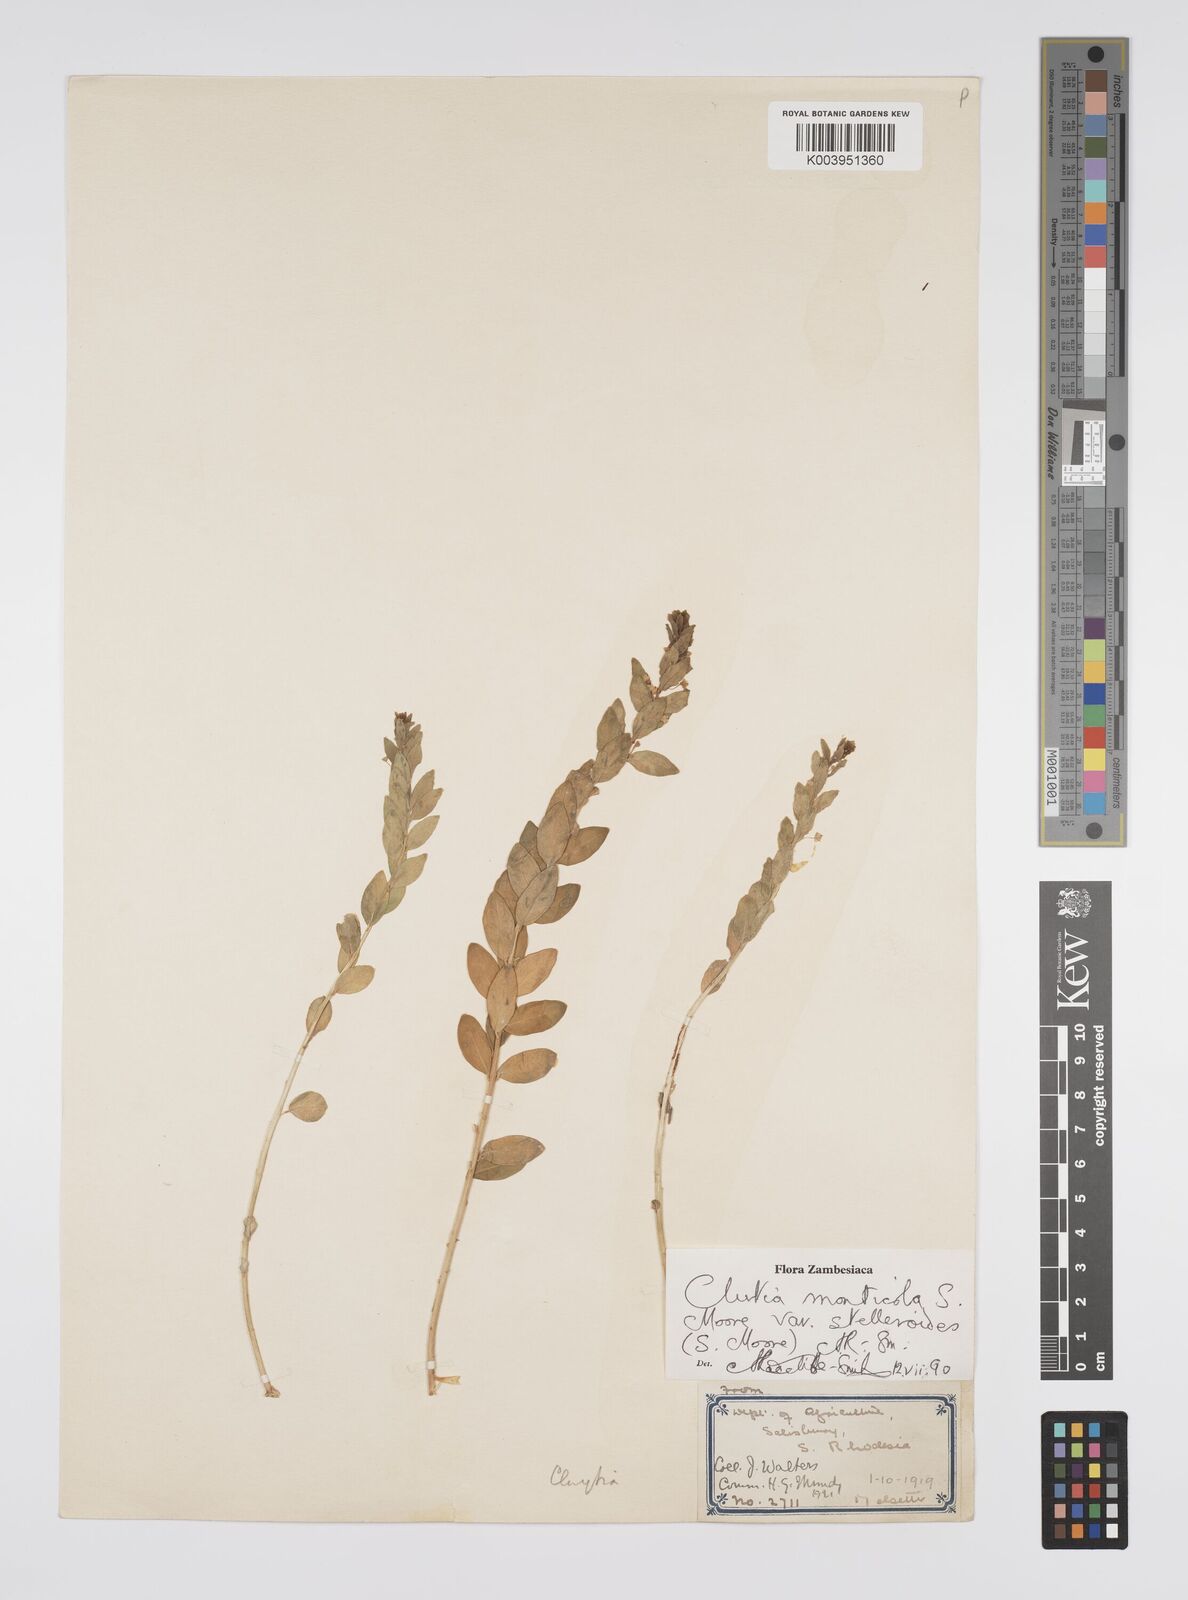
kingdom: Plantae
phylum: Tracheophyta
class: Magnoliopsida
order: Malpighiales
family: Peraceae
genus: Clutia
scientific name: Clutia monticola
